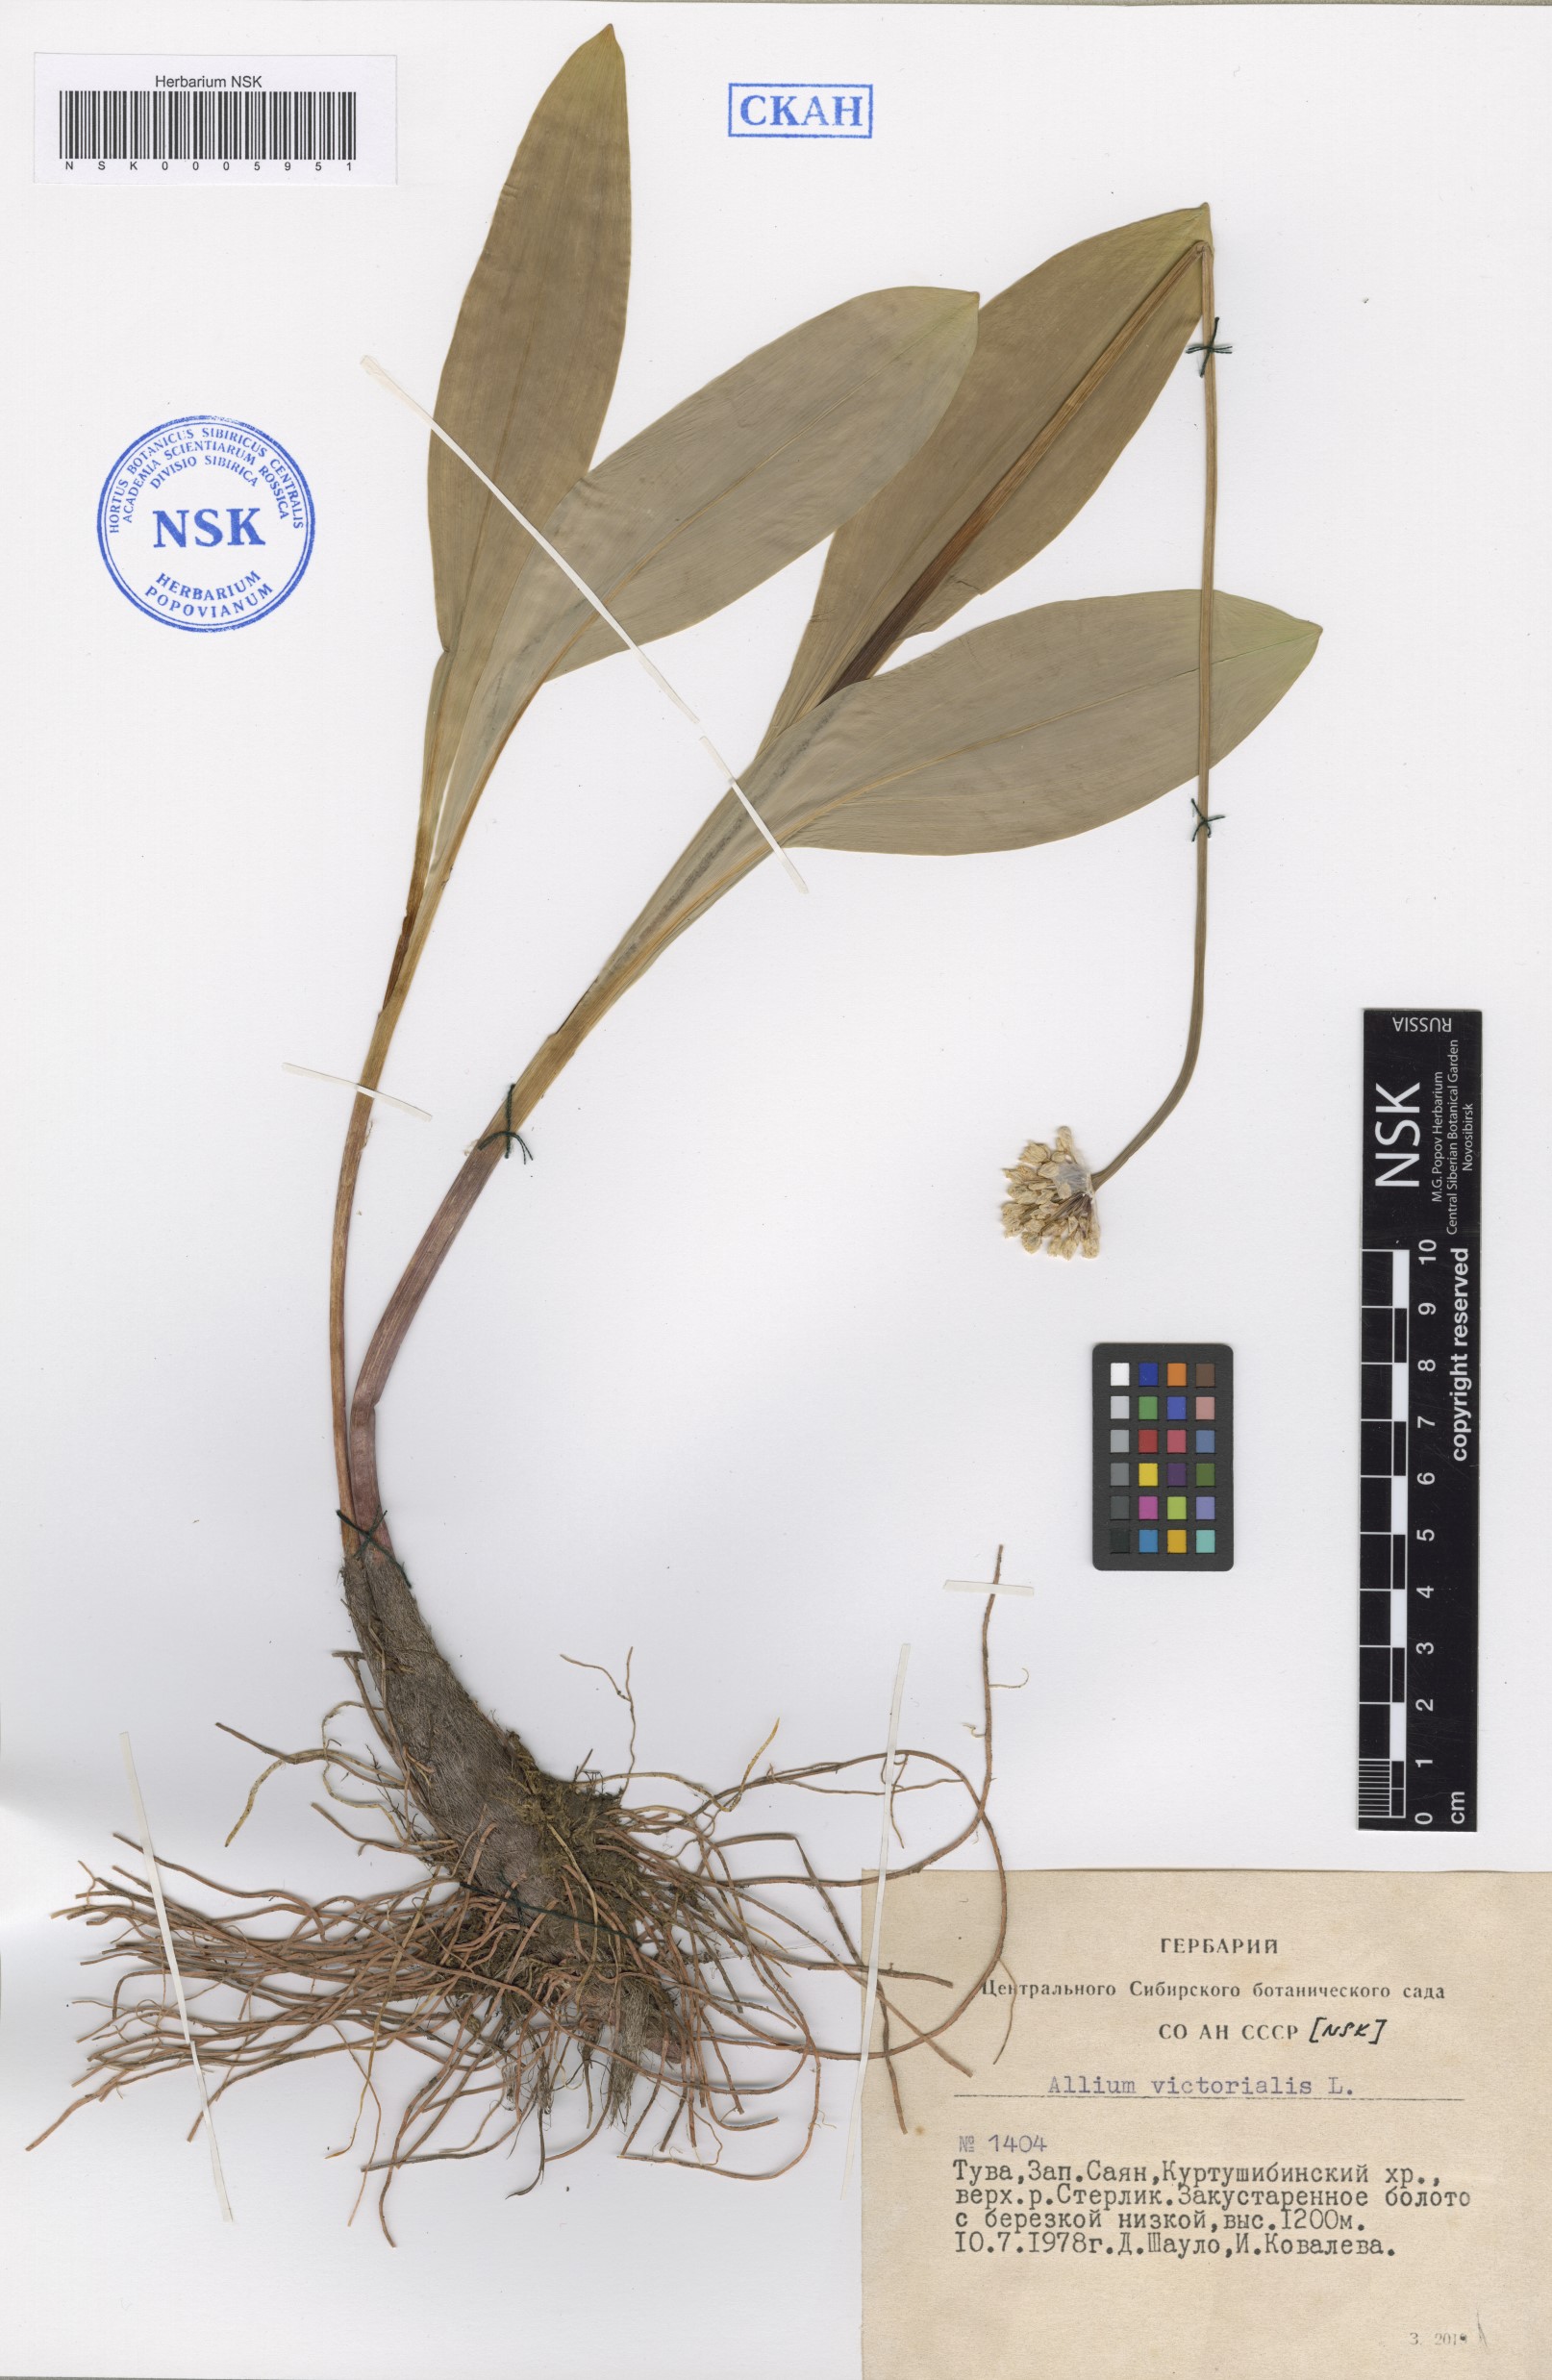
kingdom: Plantae
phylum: Tracheophyta
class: Liliopsida
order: Asparagales
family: Amaryllidaceae
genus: Allium
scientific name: Allium victorialis
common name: Alpine leek
